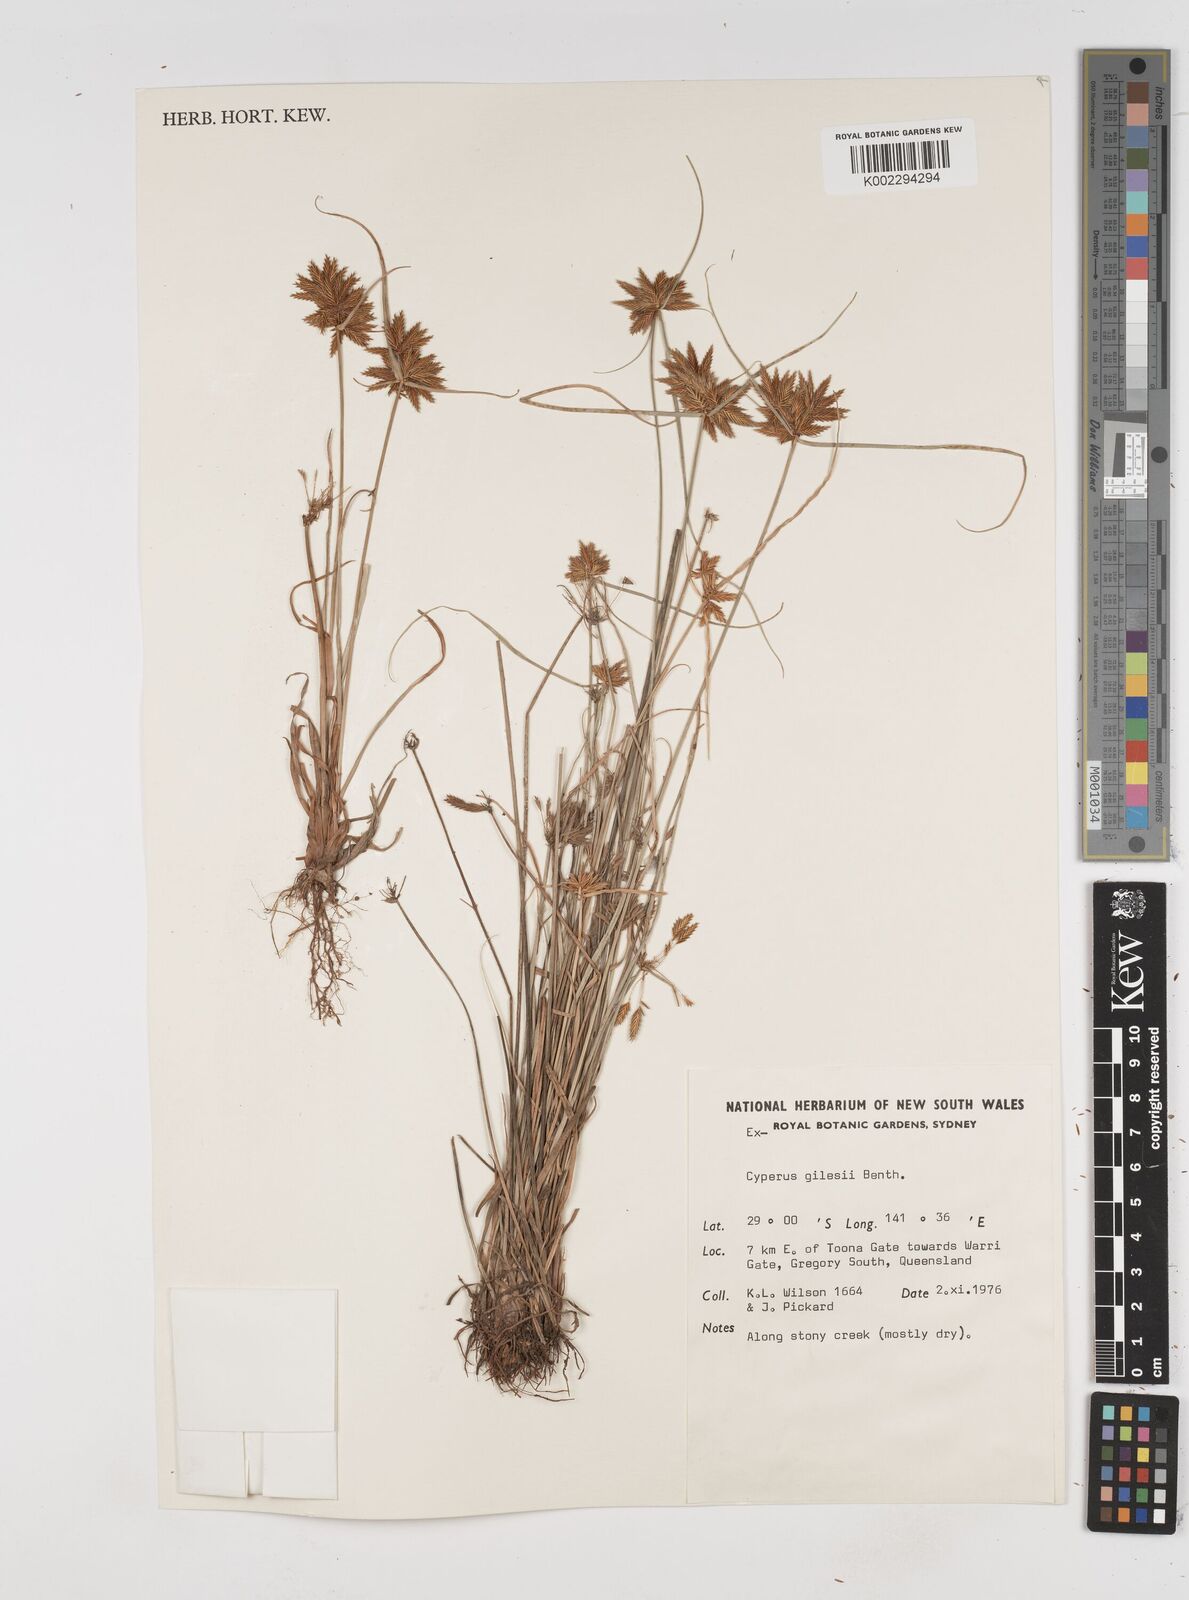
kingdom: Plantae
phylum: Tracheophyta
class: Liliopsida
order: Poales
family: Cyperaceae
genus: Cyperus
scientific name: Cyperus gilesii
